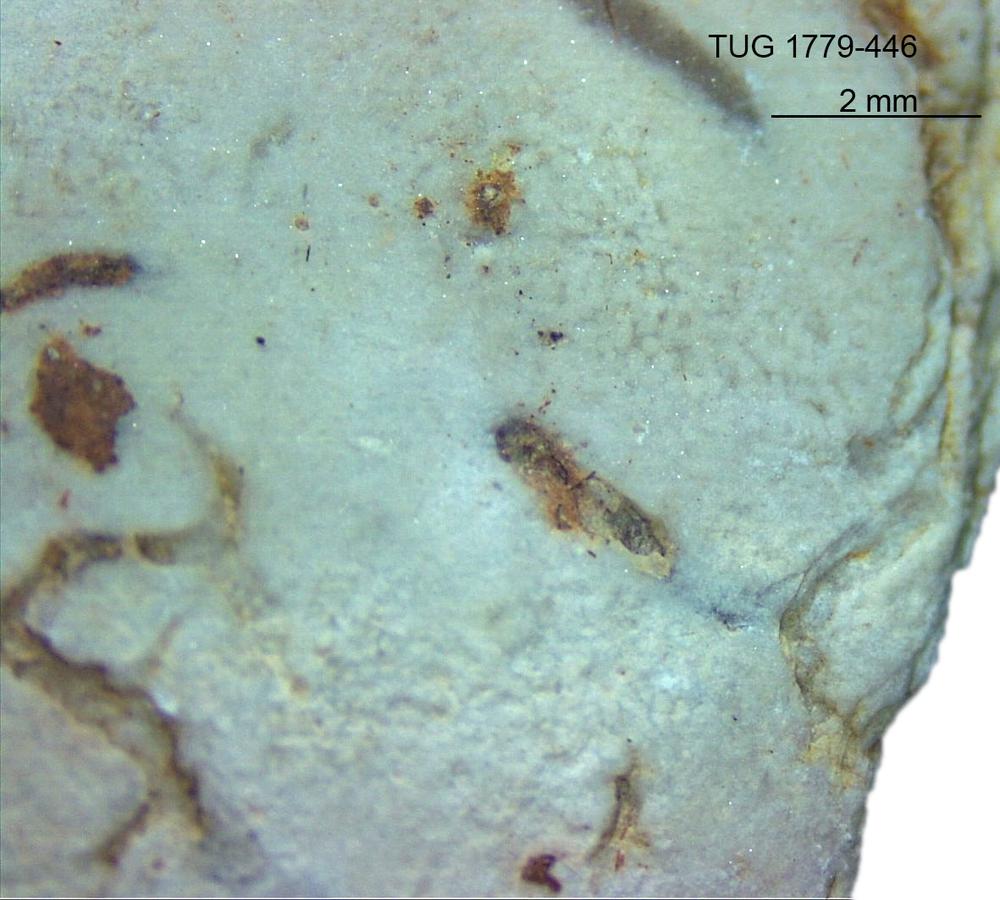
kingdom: Animalia
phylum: Bryozoa
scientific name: Bryozoa
